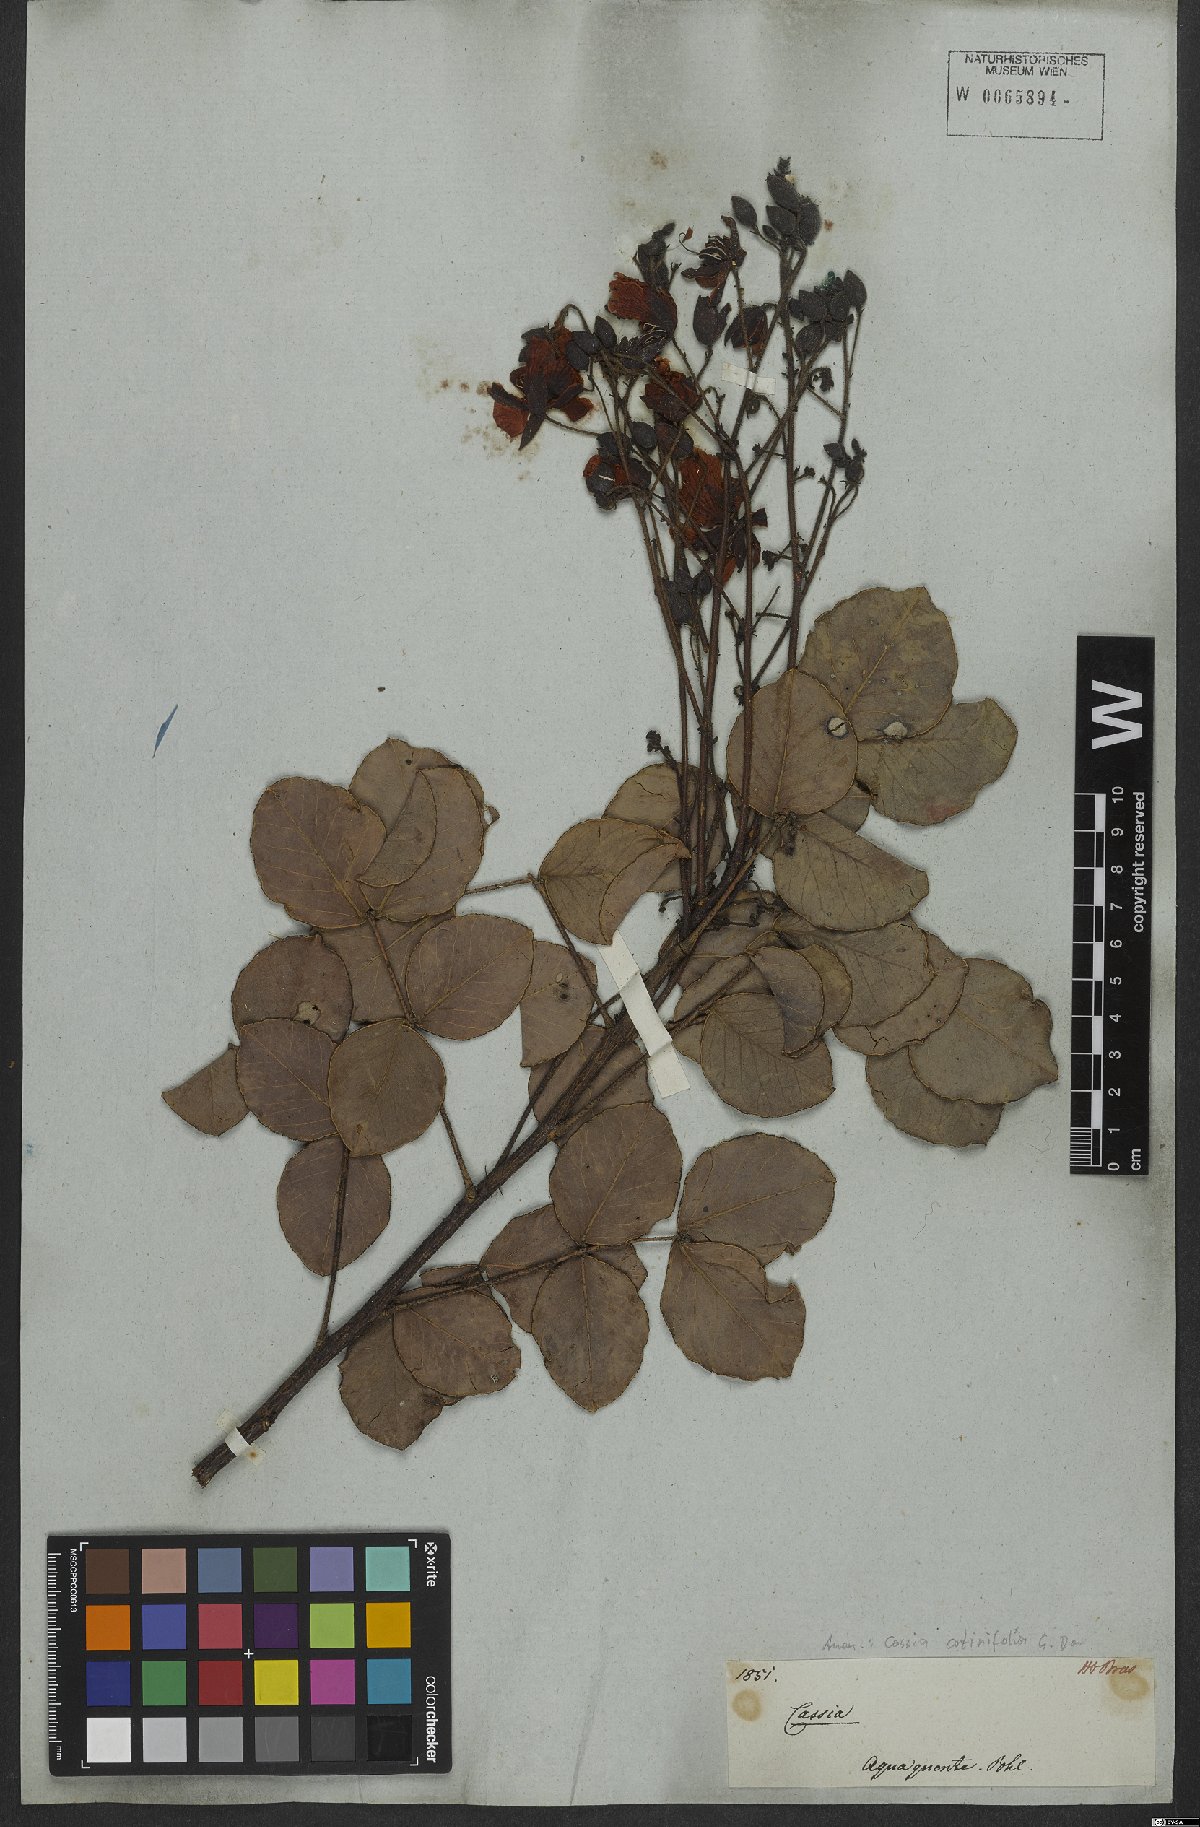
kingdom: Plantae
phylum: Tracheophyta
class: Magnoliopsida
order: Fabales
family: Fabaceae
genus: Chamaecrista
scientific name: Chamaecrista cotinifolia
